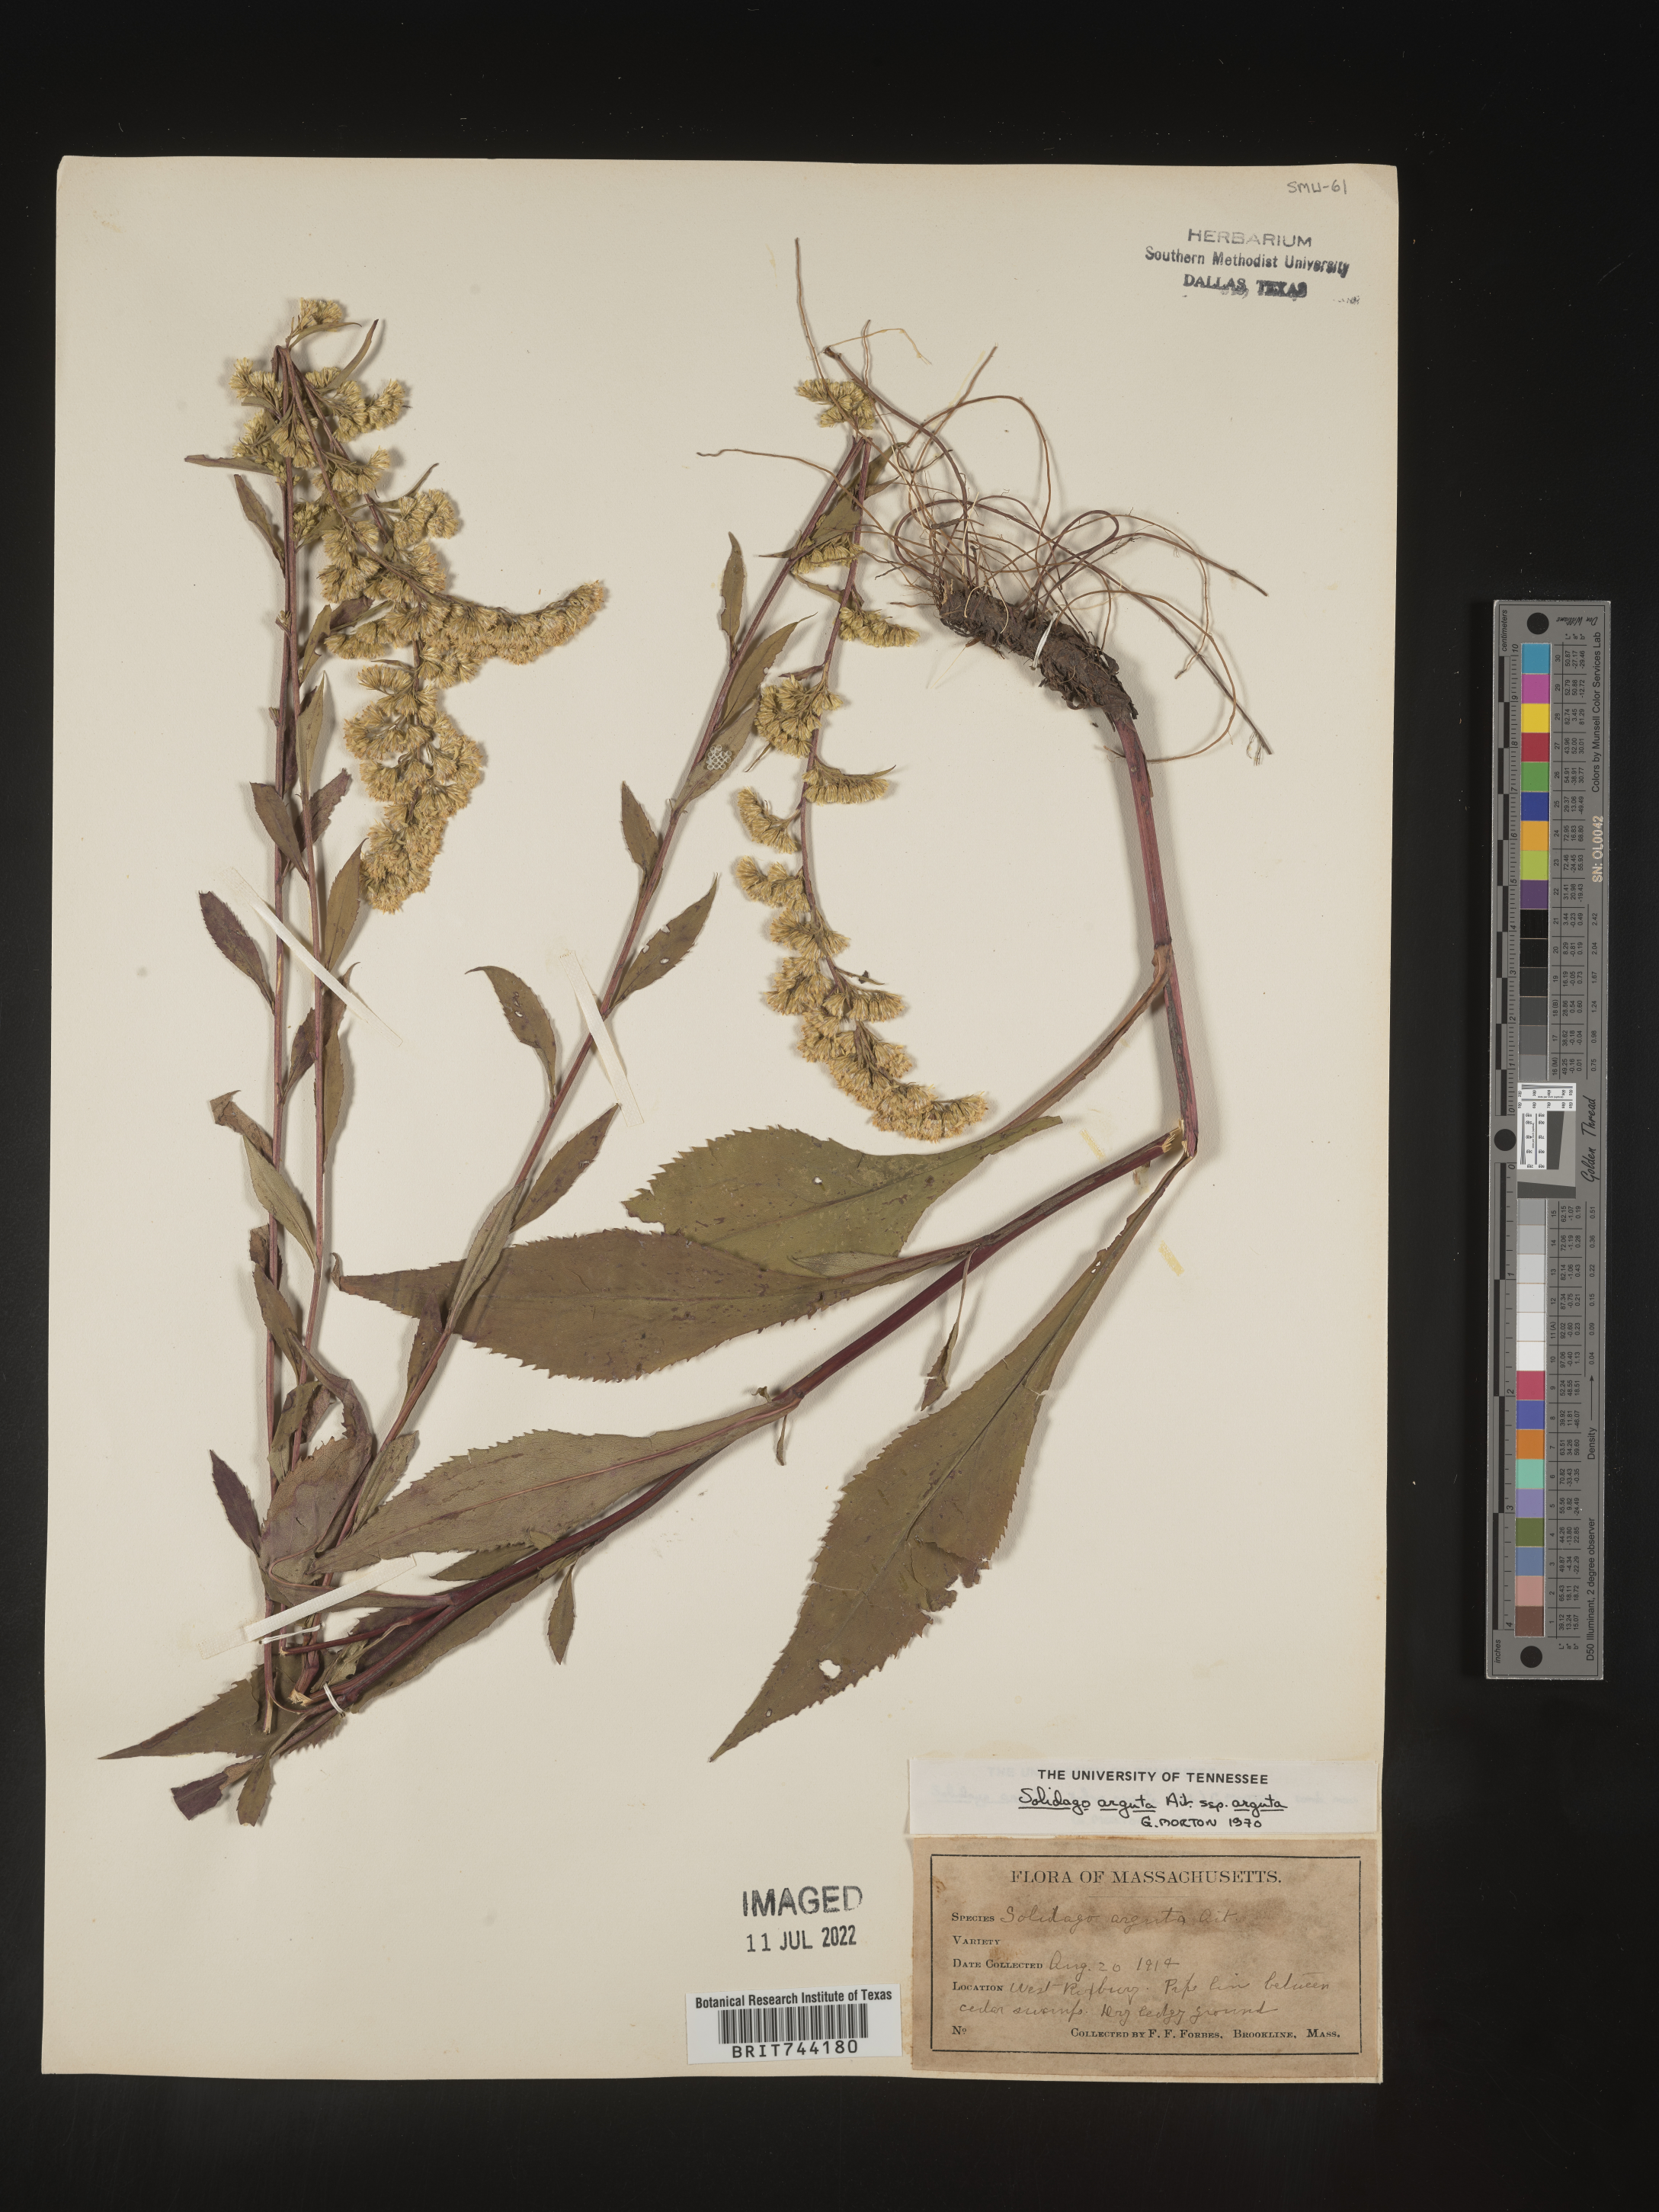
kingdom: Plantae
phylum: Tracheophyta
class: Magnoliopsida
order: Asterales
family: Asteraceae
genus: Solidago
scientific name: Solidago arguta
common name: Atlantic goldenrod
